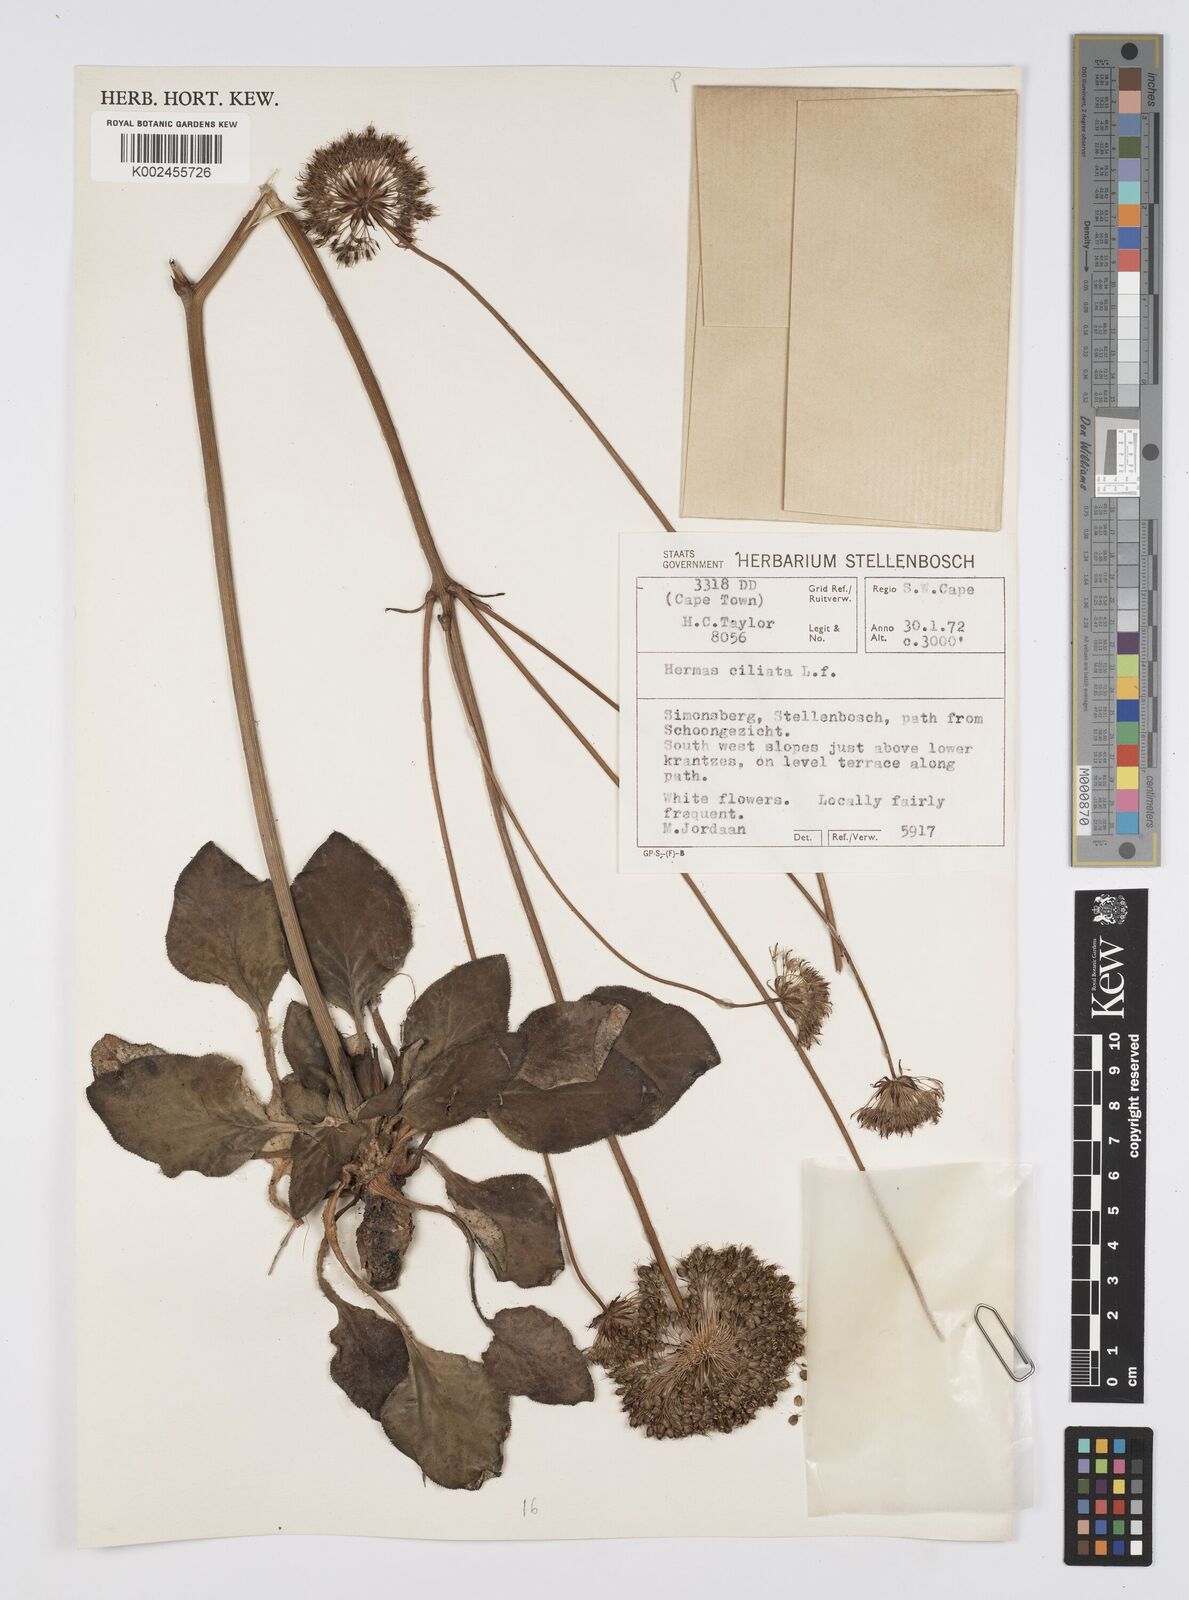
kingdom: Plantae
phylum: Tracheophyta
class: Magnoliopsida
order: Apiales
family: Apiaceae
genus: Hermas
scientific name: Hermas ciliata
